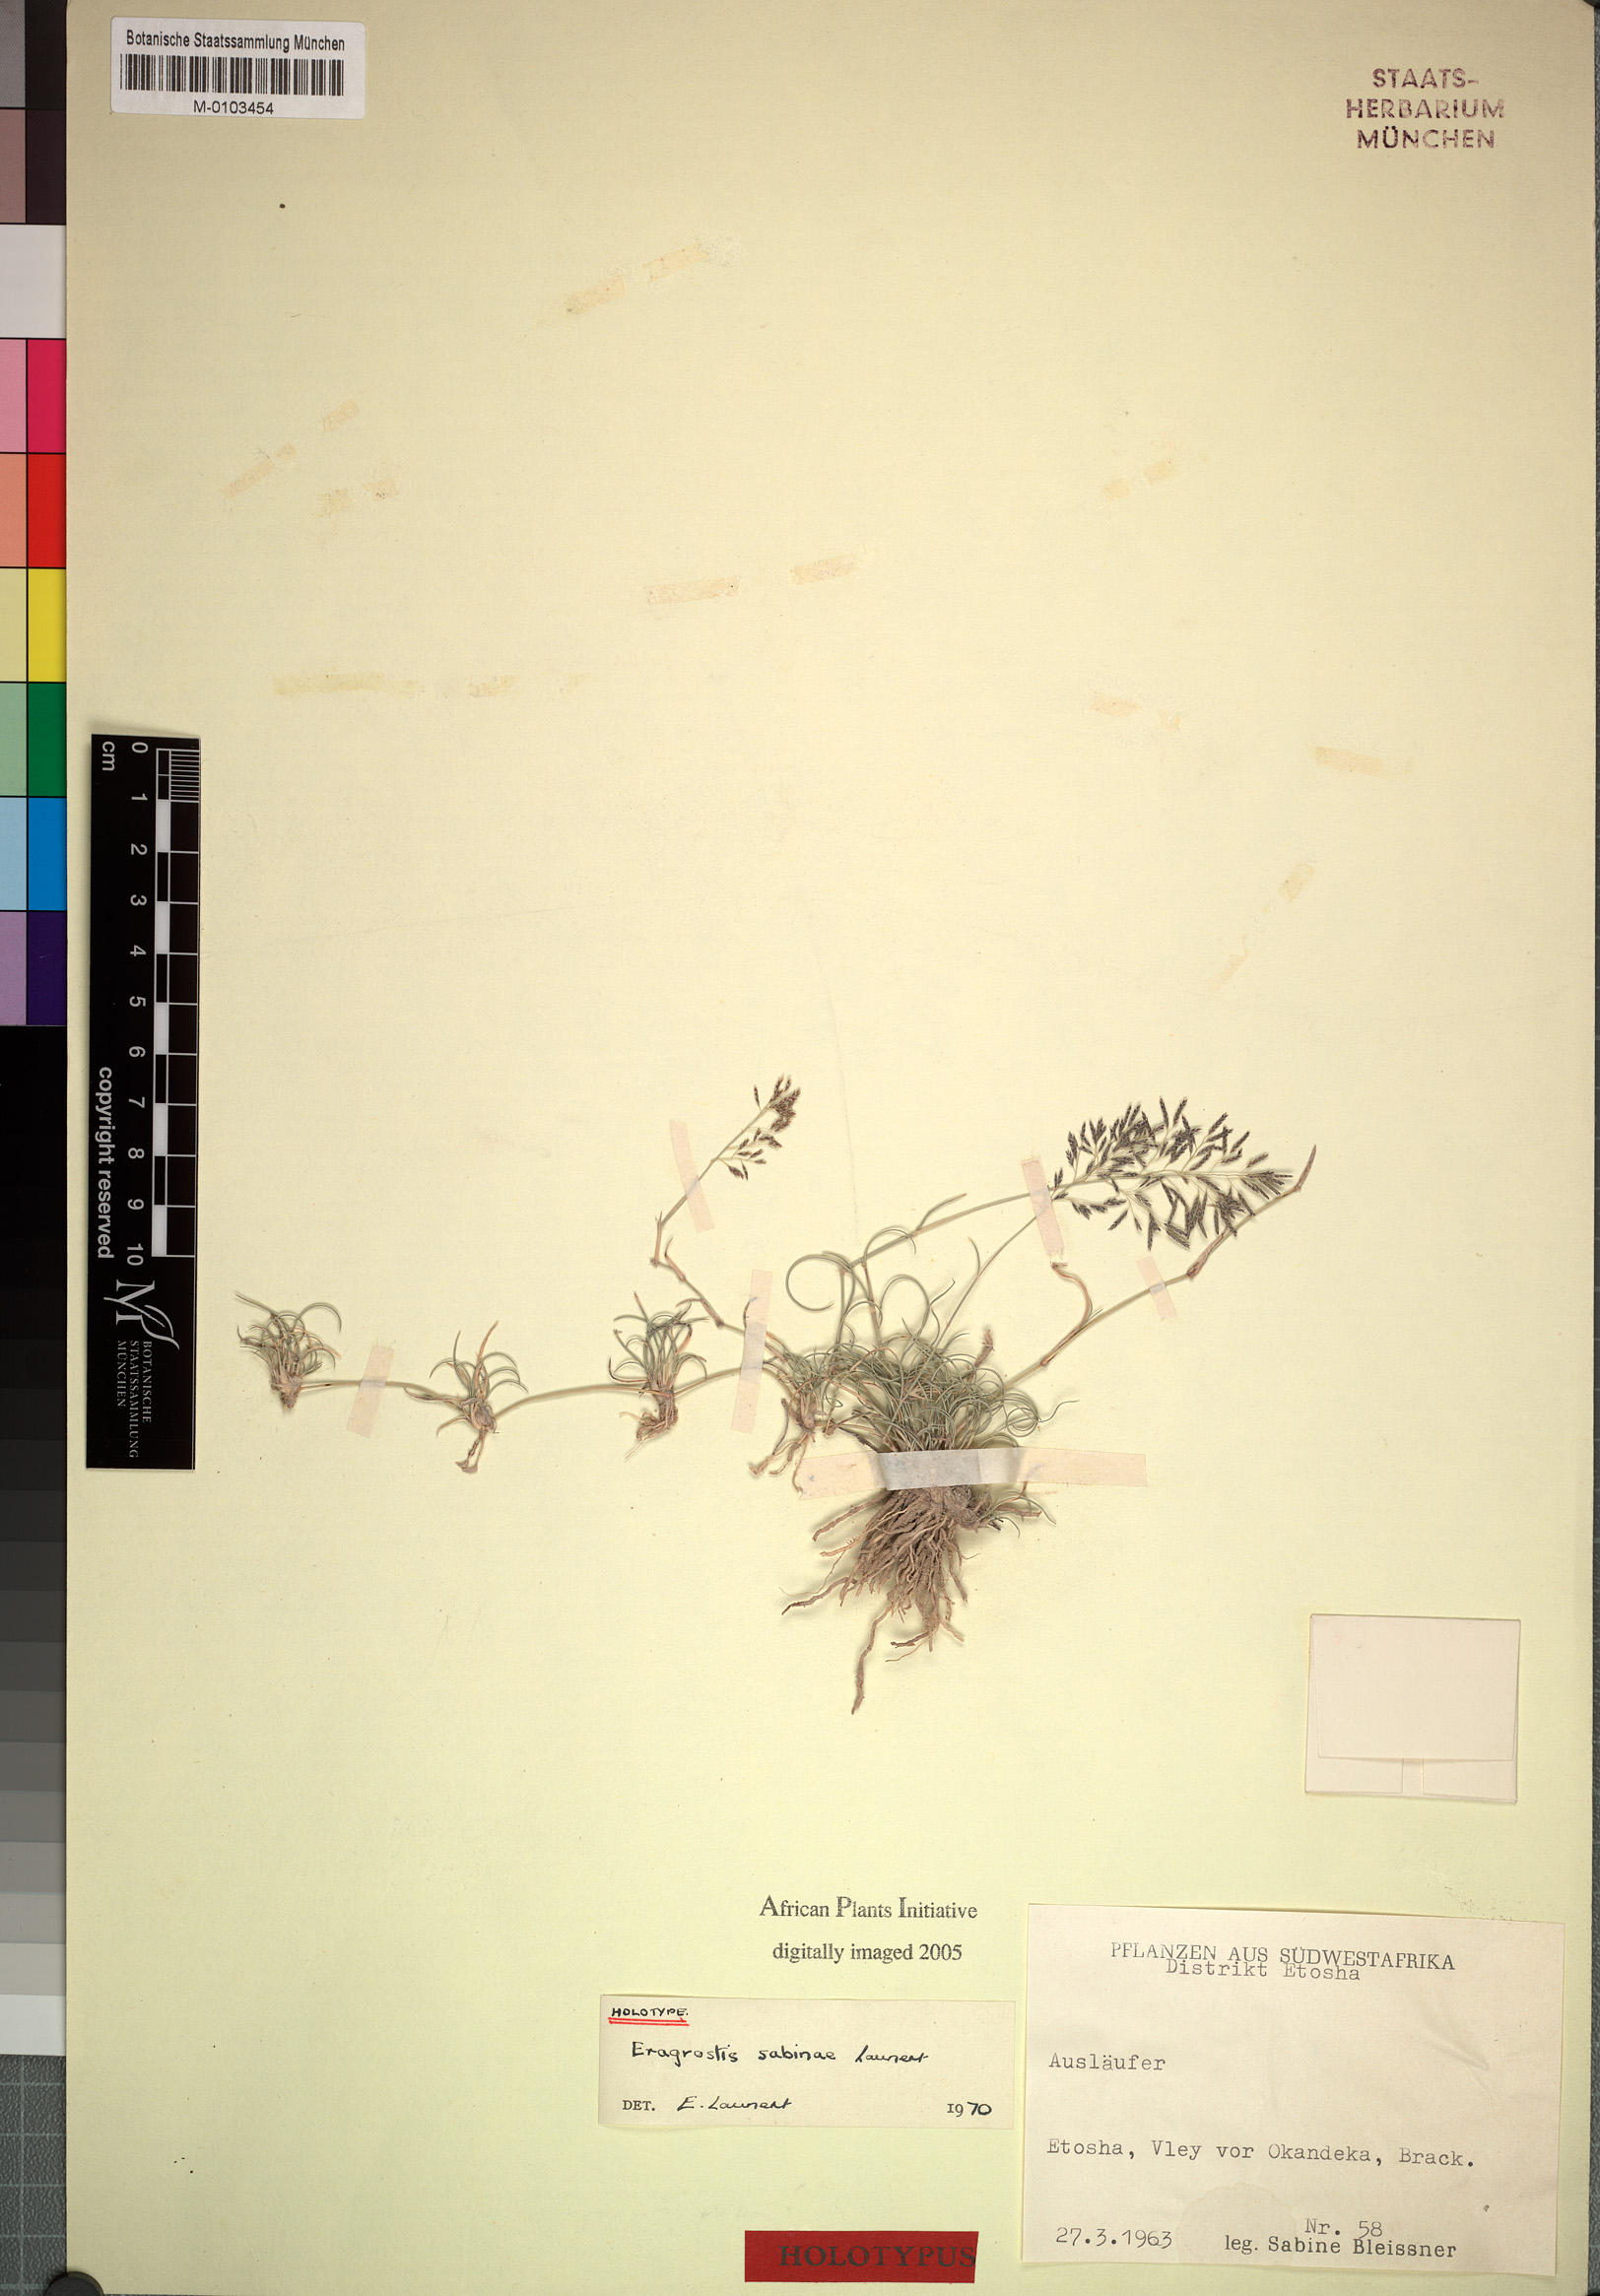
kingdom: Plantae
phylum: Tracheophyta
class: Liliopsida
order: Poales
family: Poaceae
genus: Eragrostis
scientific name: Eragrostis sabinae
